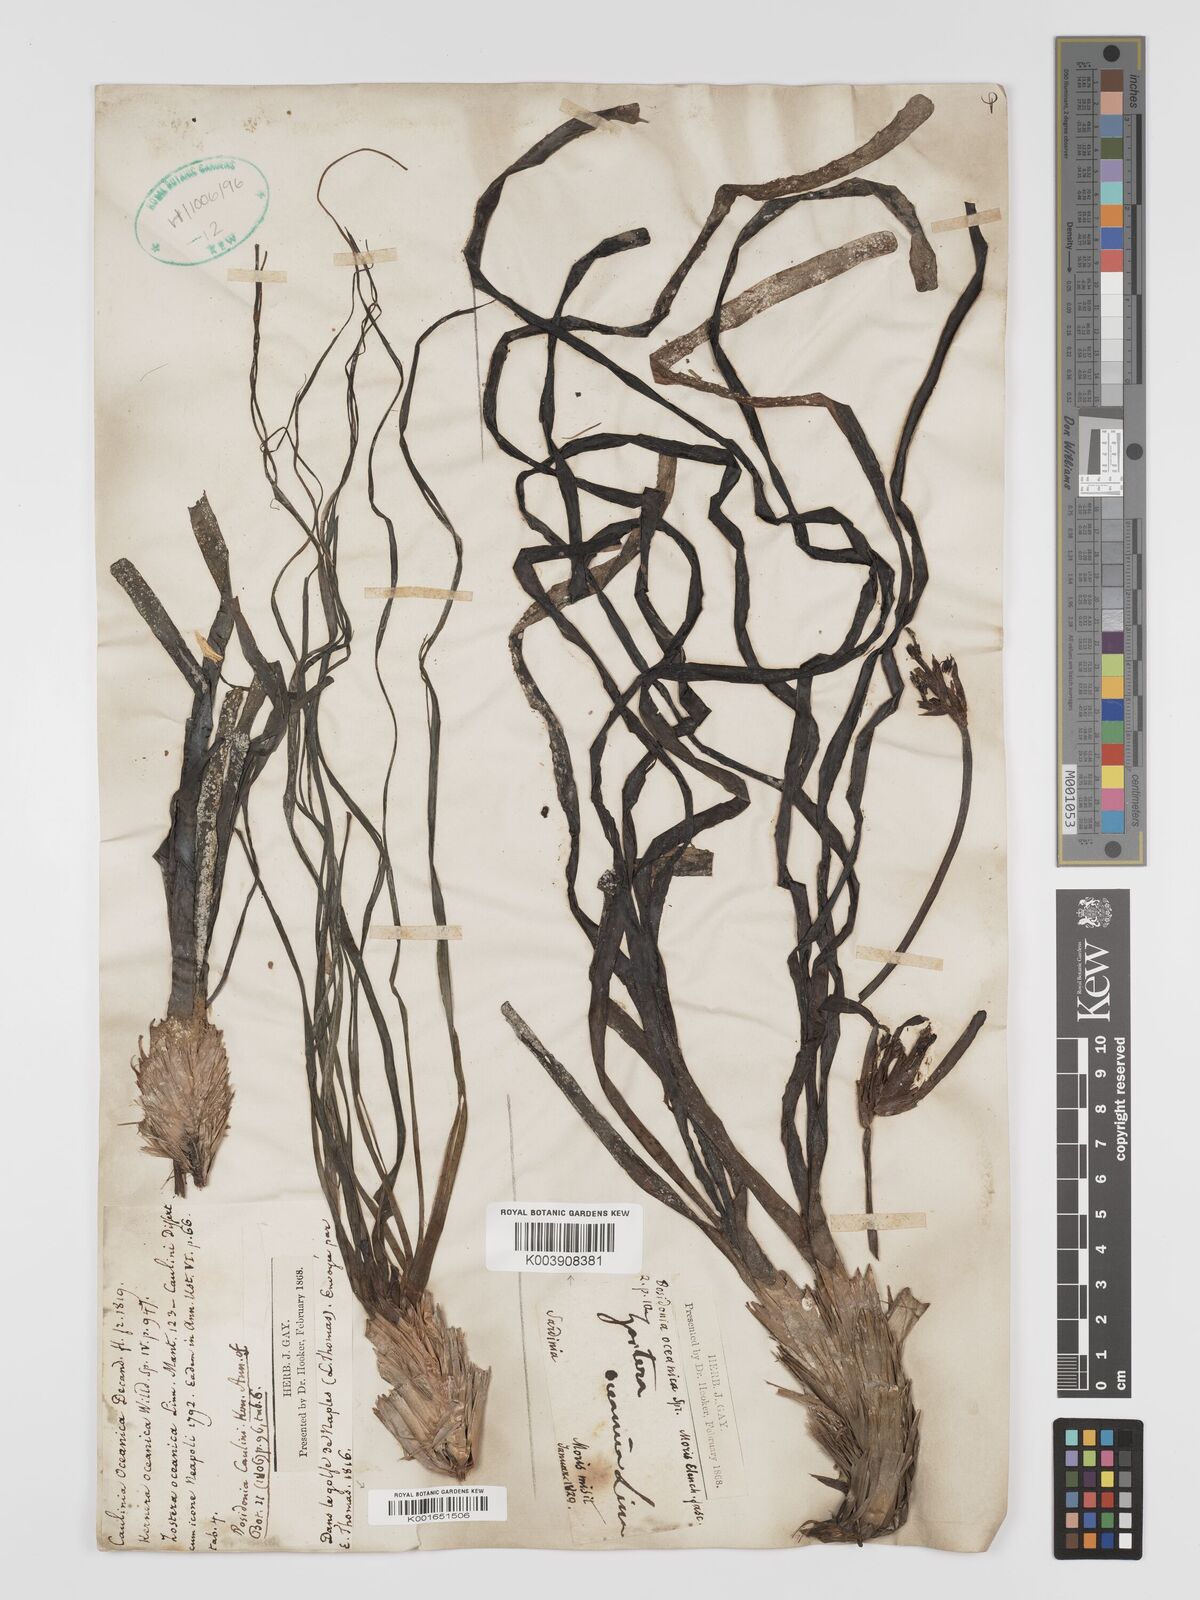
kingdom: Plantae
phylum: Tracheophyta
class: Liliopsida
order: Alismatales
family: Posidoniaceae
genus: Posidonia
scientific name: Posidonia
